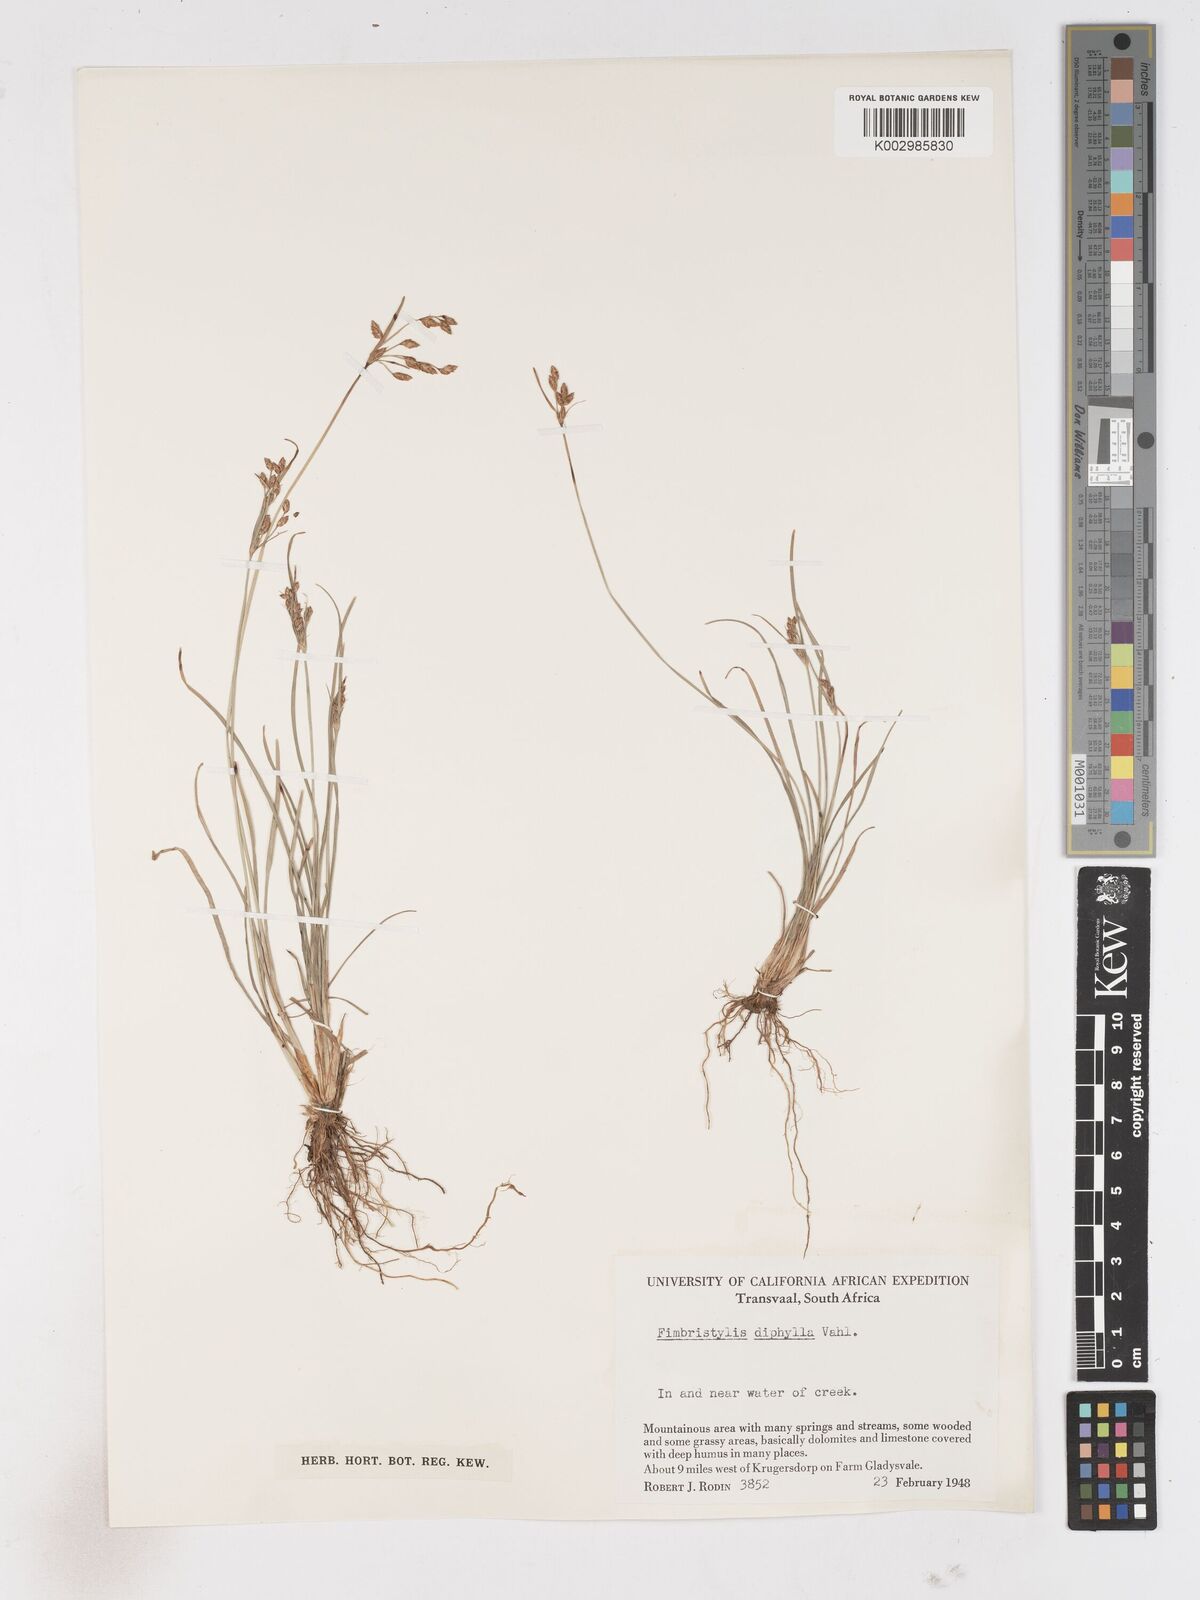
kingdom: Plantae
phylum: Tracheophyta
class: Liliopsida
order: Poales
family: Cyperaceae
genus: Fimbristylis
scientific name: Fimbristylis dichotoma
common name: Forked fimbry
